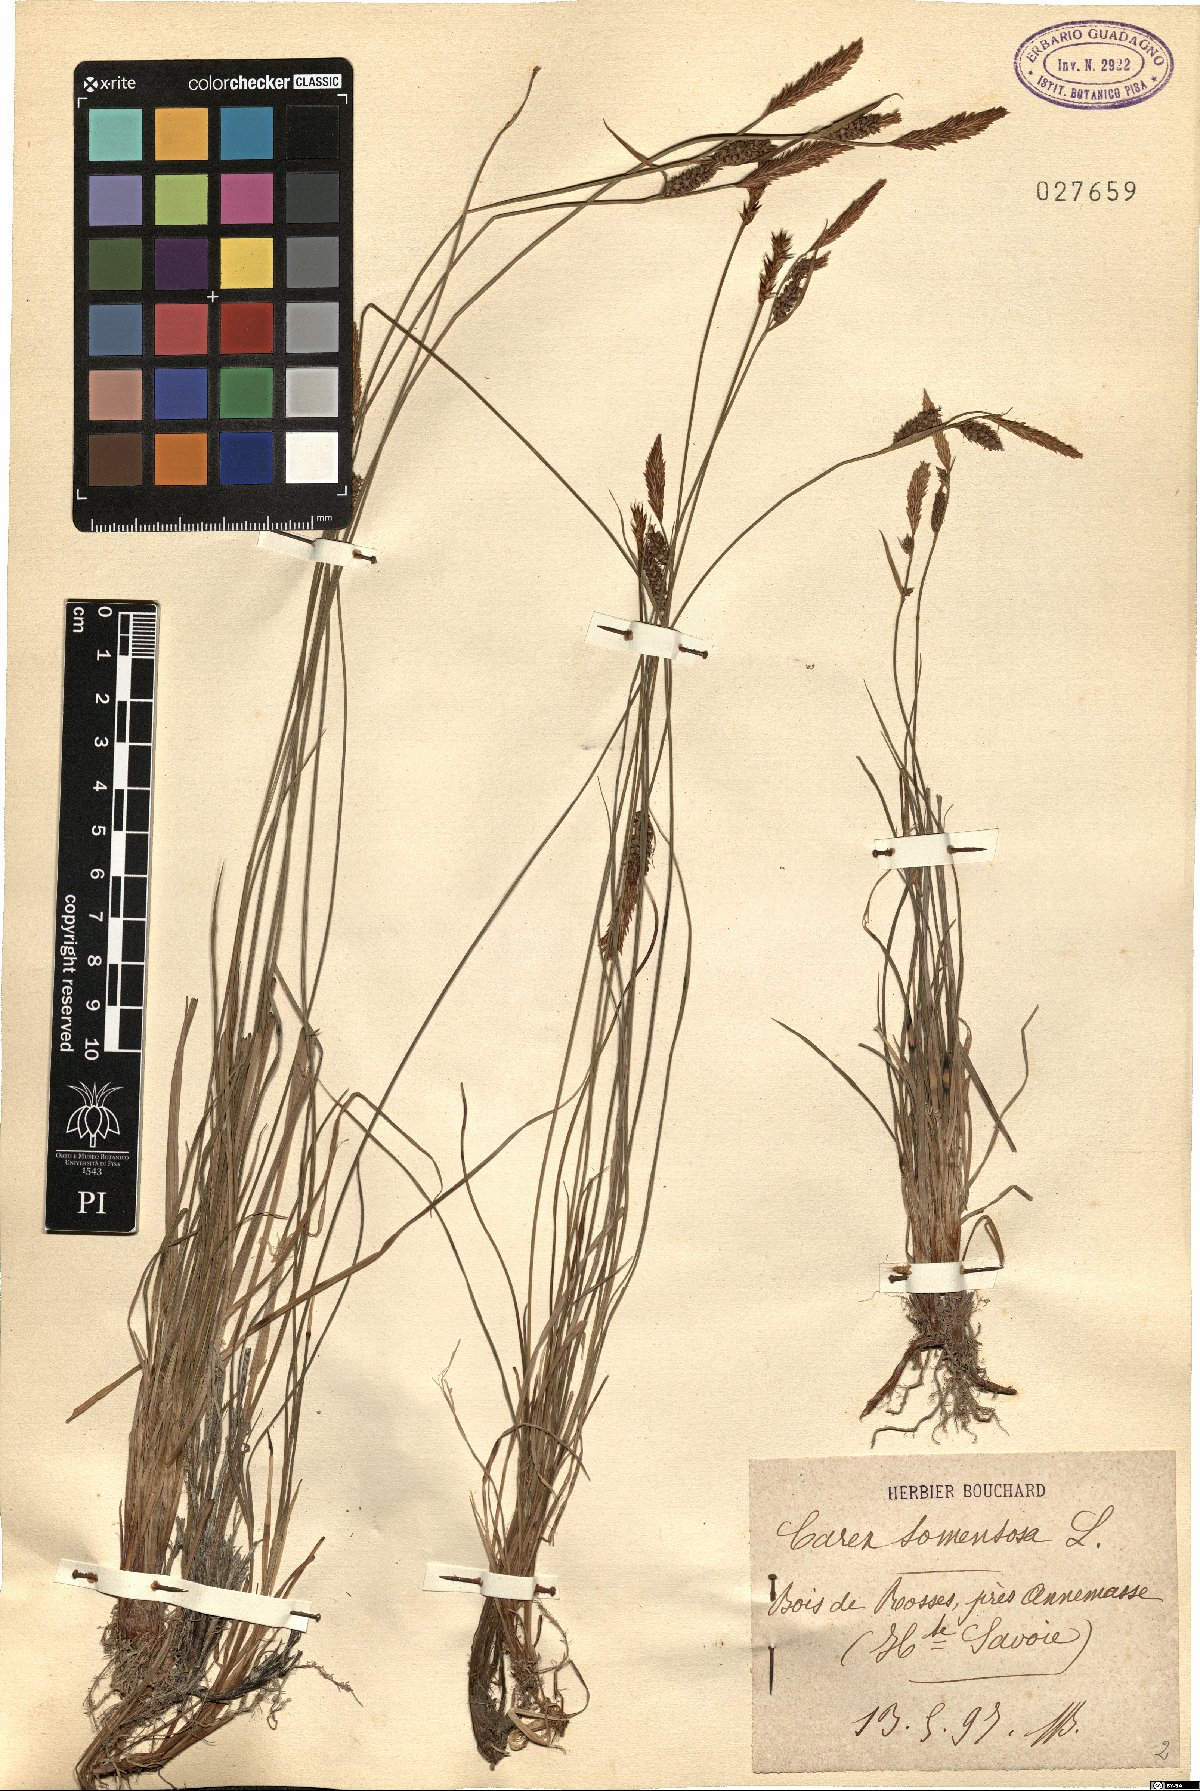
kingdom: Plantae
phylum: Tracheophyta
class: Liliopsida
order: Poales
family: Cyperaceae
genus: Carex
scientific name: Carex tomentosa
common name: Downy-fruited sedge
